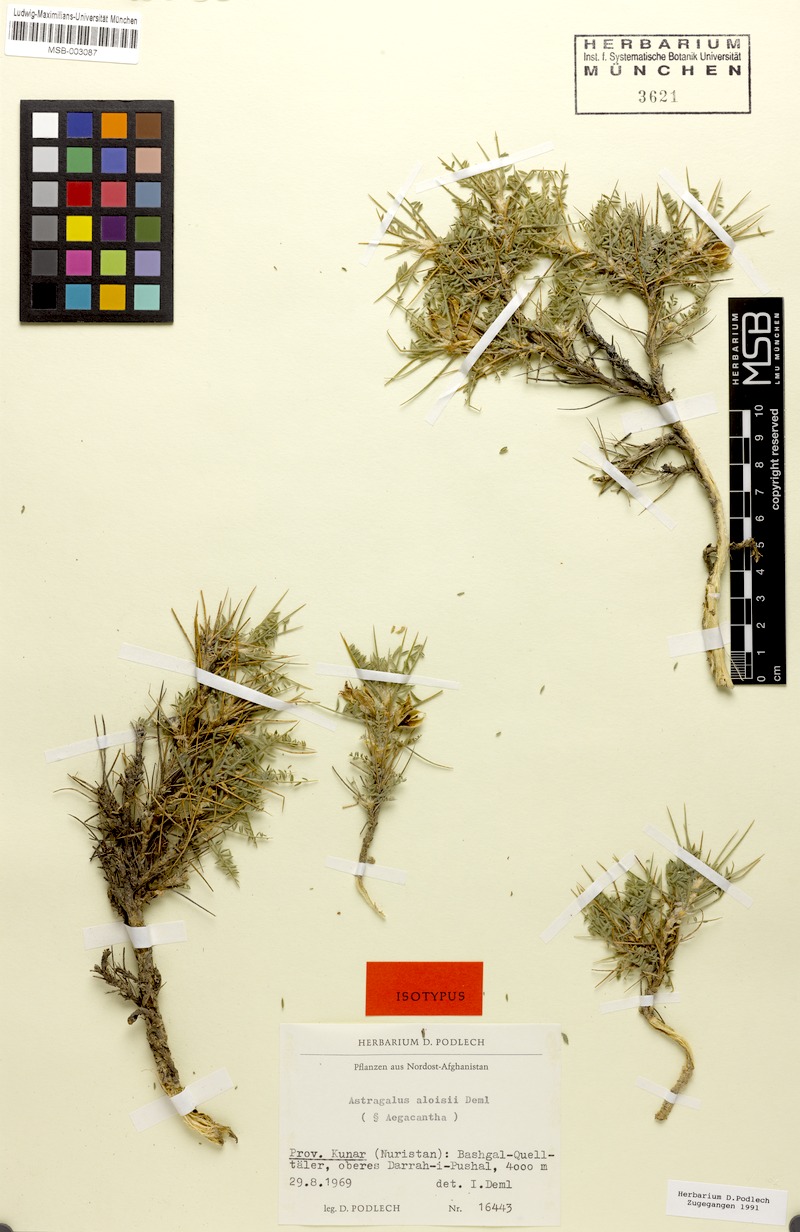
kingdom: Plantae
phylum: Tracheophyta
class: Magnoliopsida
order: Fabales
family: Fabaceae
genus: Astragalus
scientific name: Astragalus aloisii
